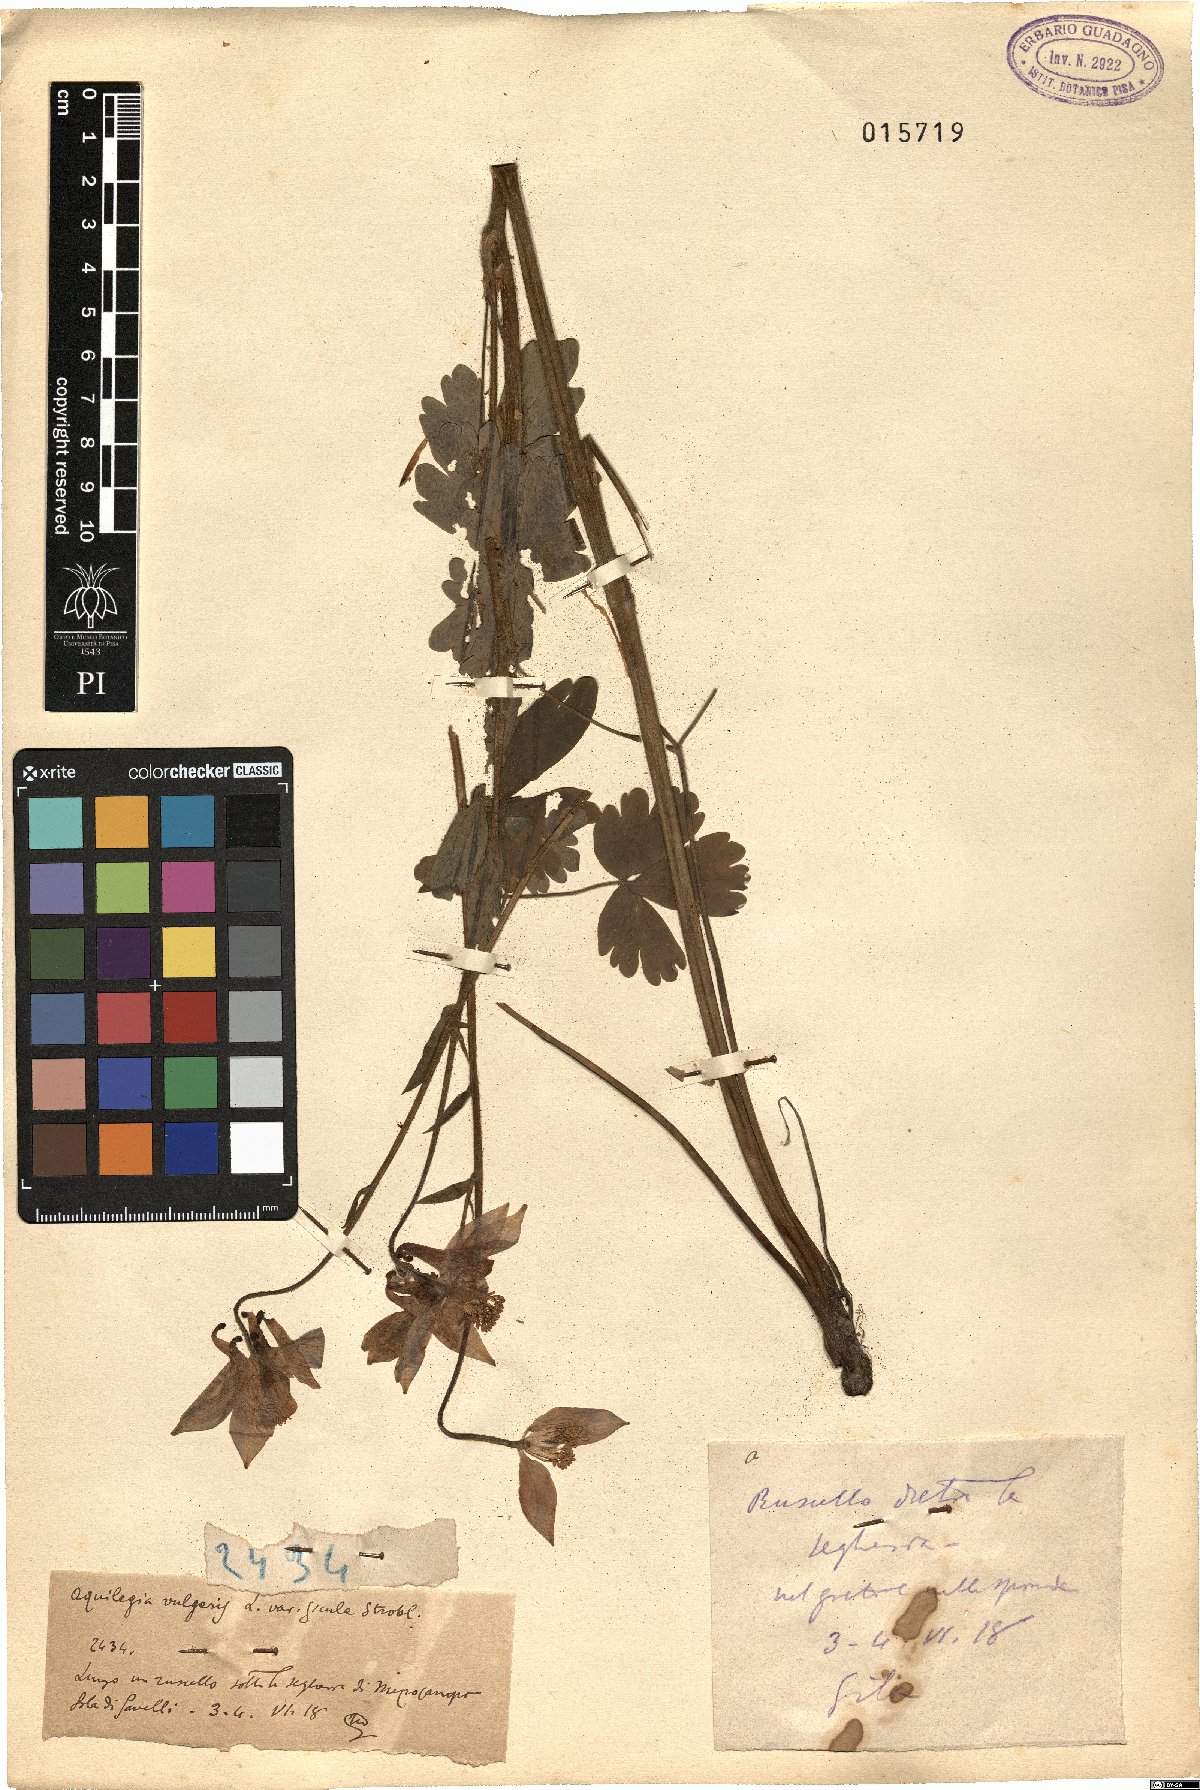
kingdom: Plantae
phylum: Tracheophyta
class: Magnoliopsida
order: Ranunculales
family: Ranunculaceae
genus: Aquilegia
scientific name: Aquilegia sicula
